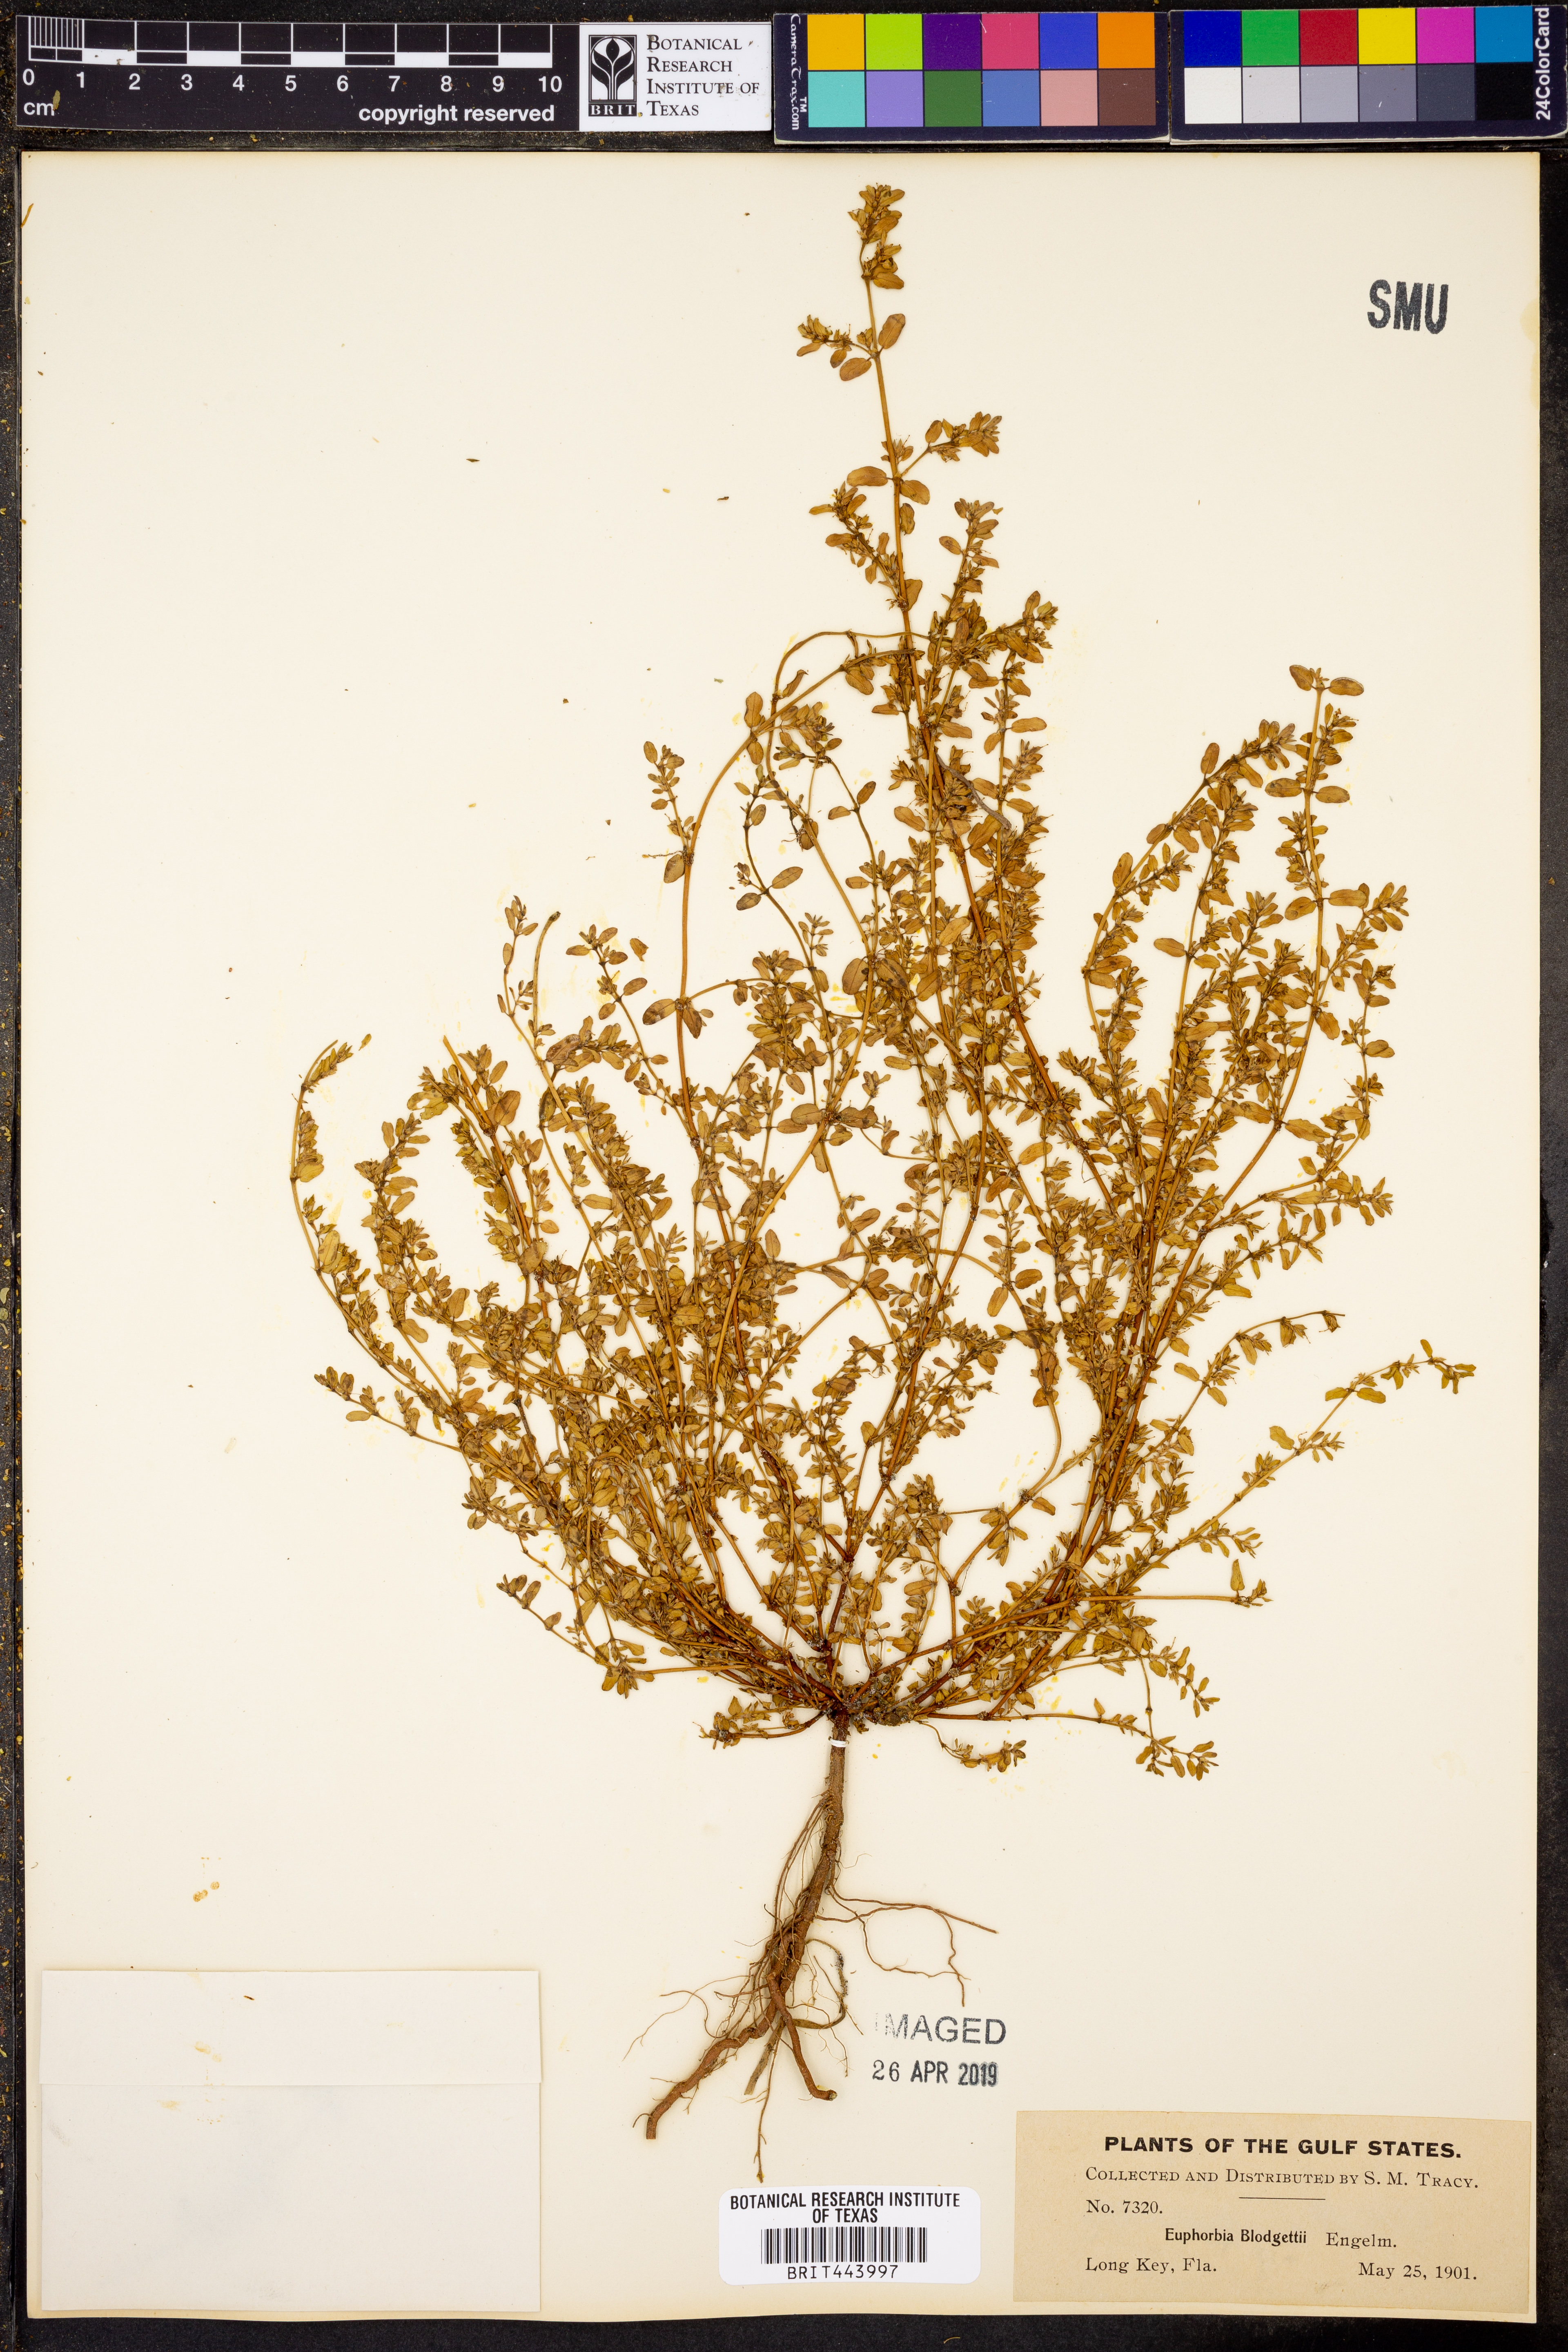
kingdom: Plantae
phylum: Tracheophyta
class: Magnoliopsida
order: Malpighiales
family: Euphorbiaceae
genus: Euphorbia
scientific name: Euphorbia blodgettii
